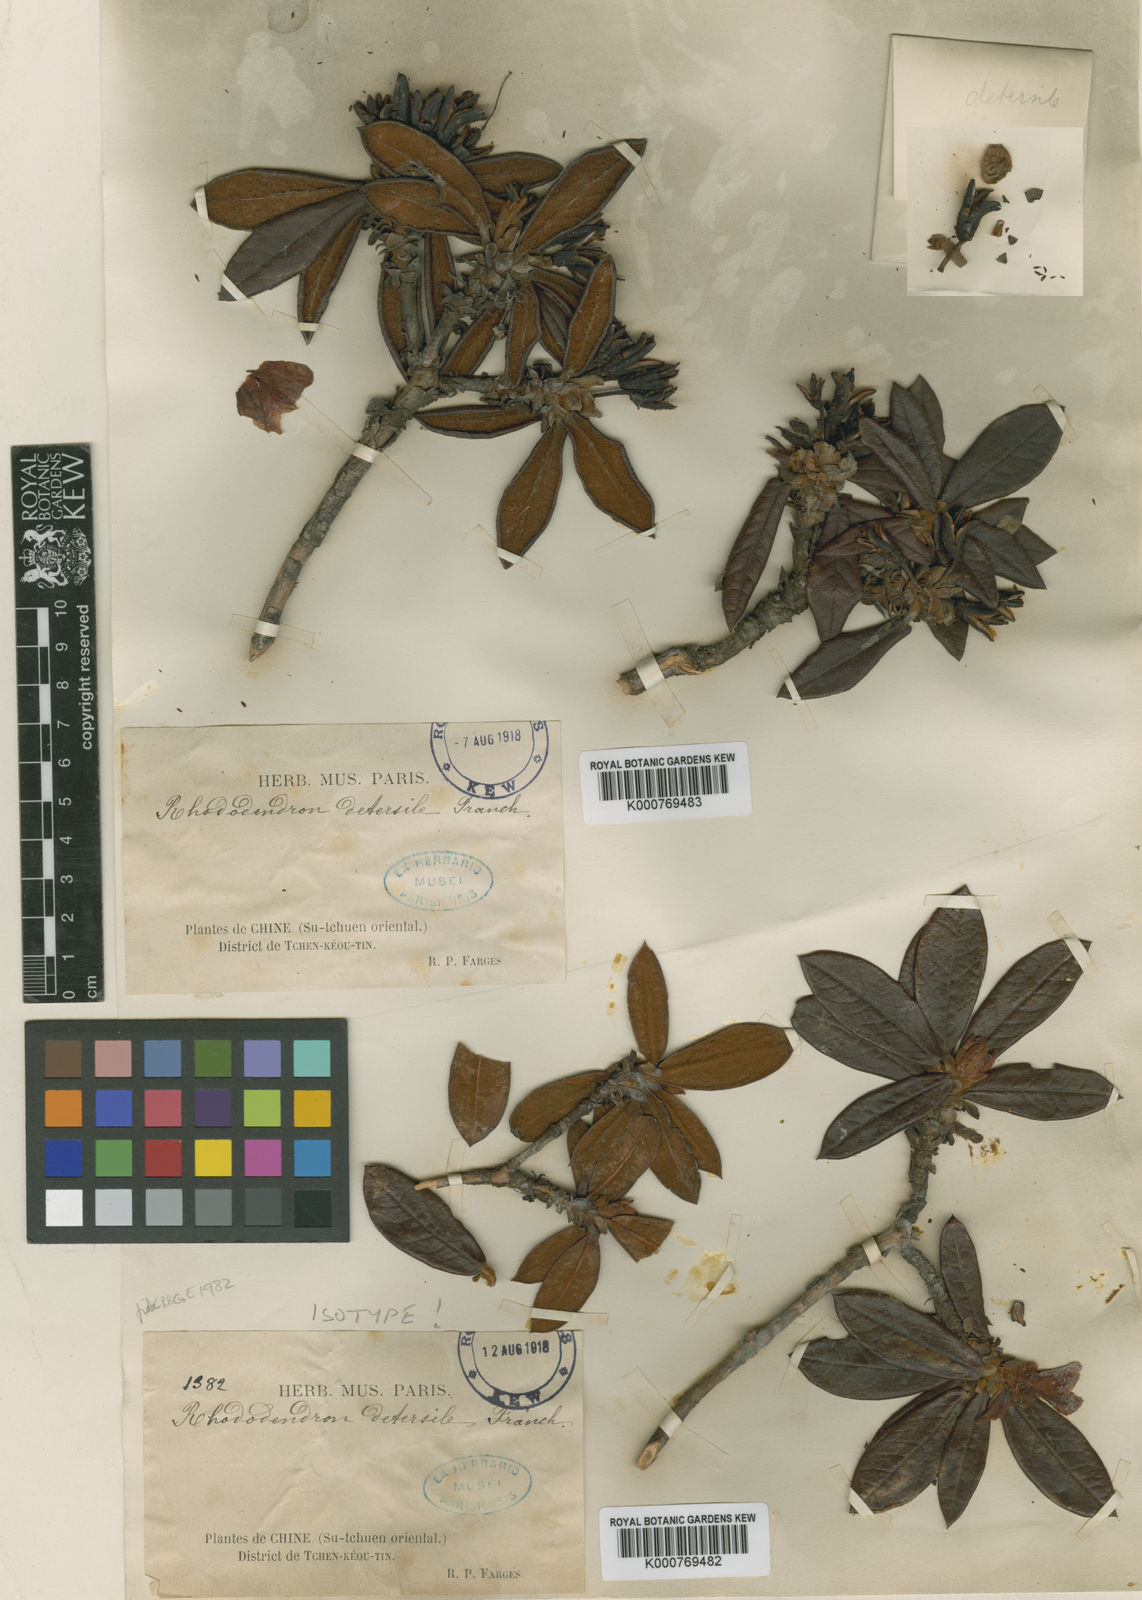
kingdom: Plantae
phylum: Tracheophyta
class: Magnoliopsida
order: Ericales
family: Ericaceae
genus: Rhododendron
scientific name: Rhododendron detersile
